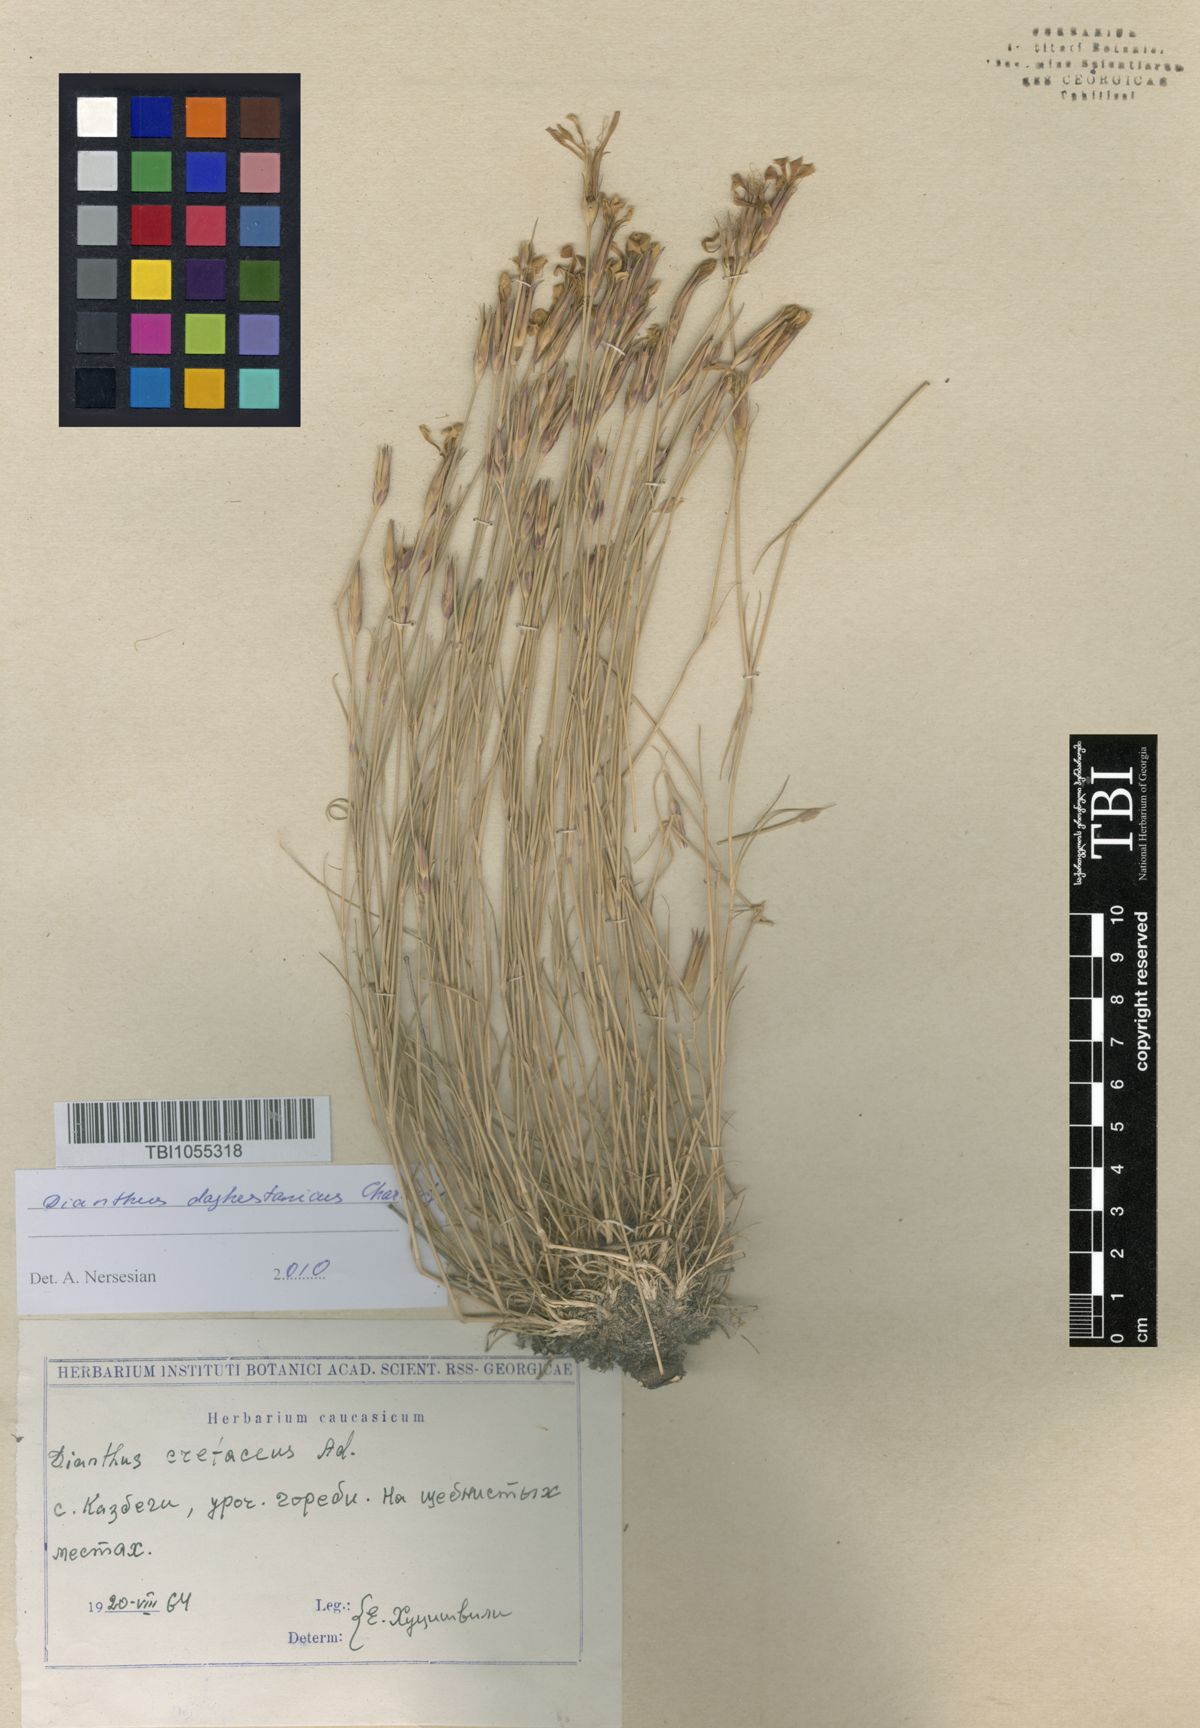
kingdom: Plantae
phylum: Tracheophyta
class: Magnoliopsida
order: Caryophyllales
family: Caryophyllaceae
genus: Dianthus
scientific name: Dianthus cretaceus
